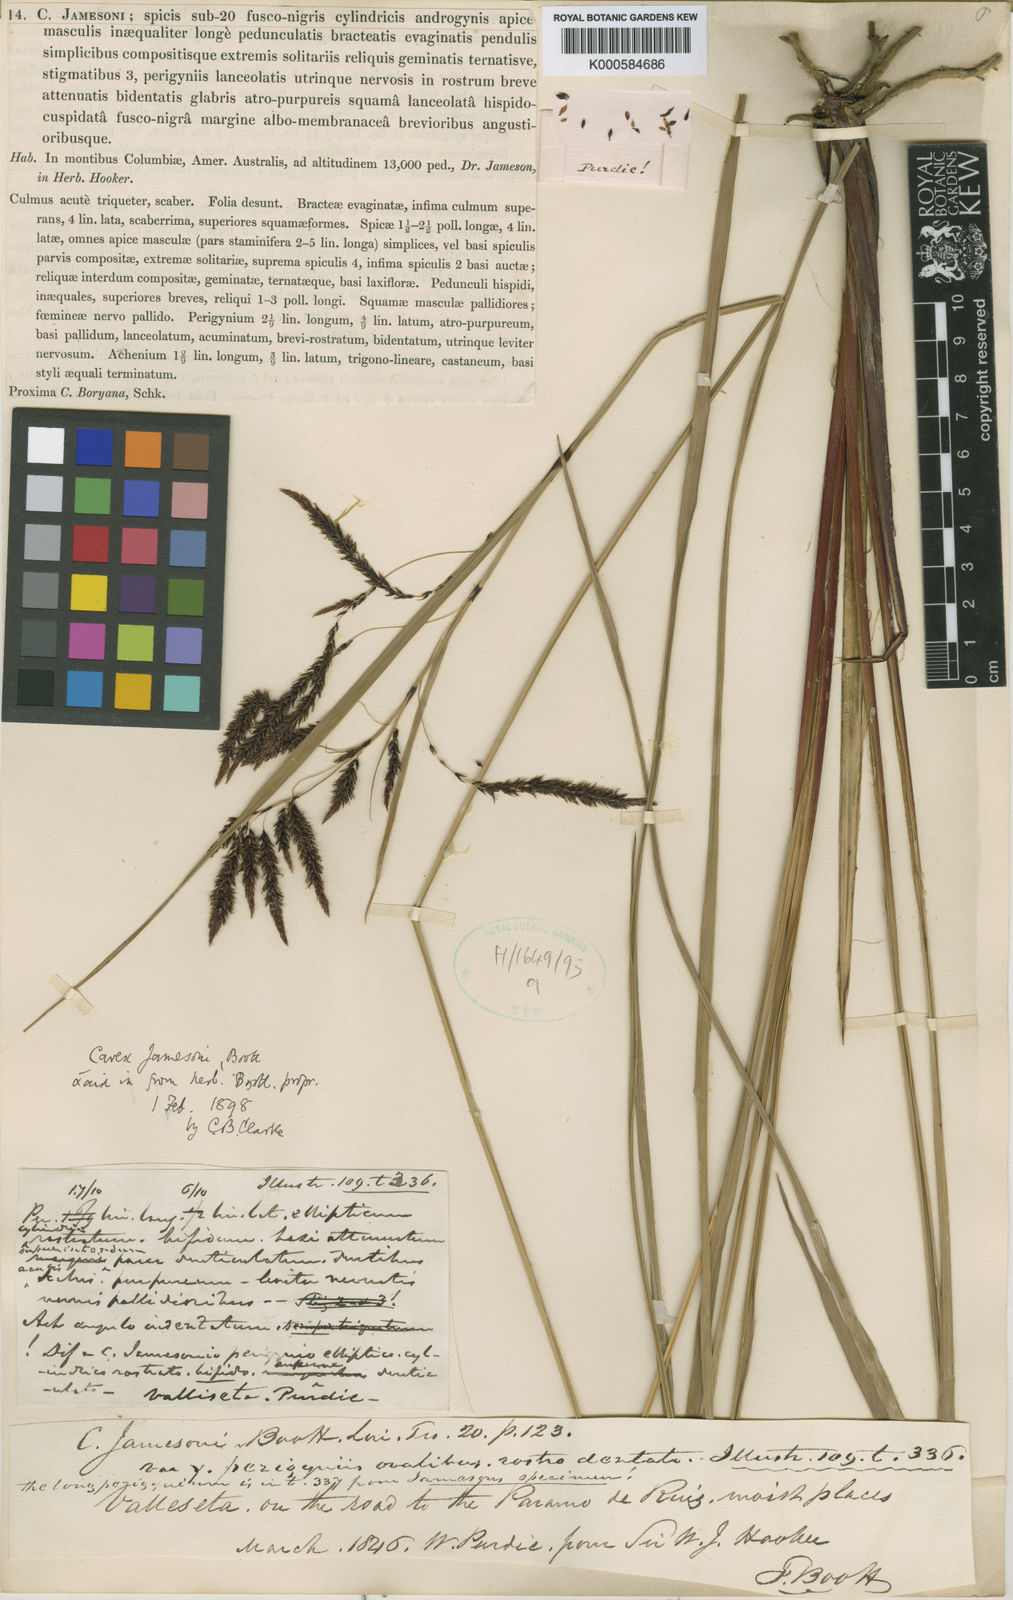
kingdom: Plantae
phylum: Tracheophyta
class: Liliopsida
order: Poales
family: Cyperaceae
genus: Carex
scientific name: Carex jamesonii
